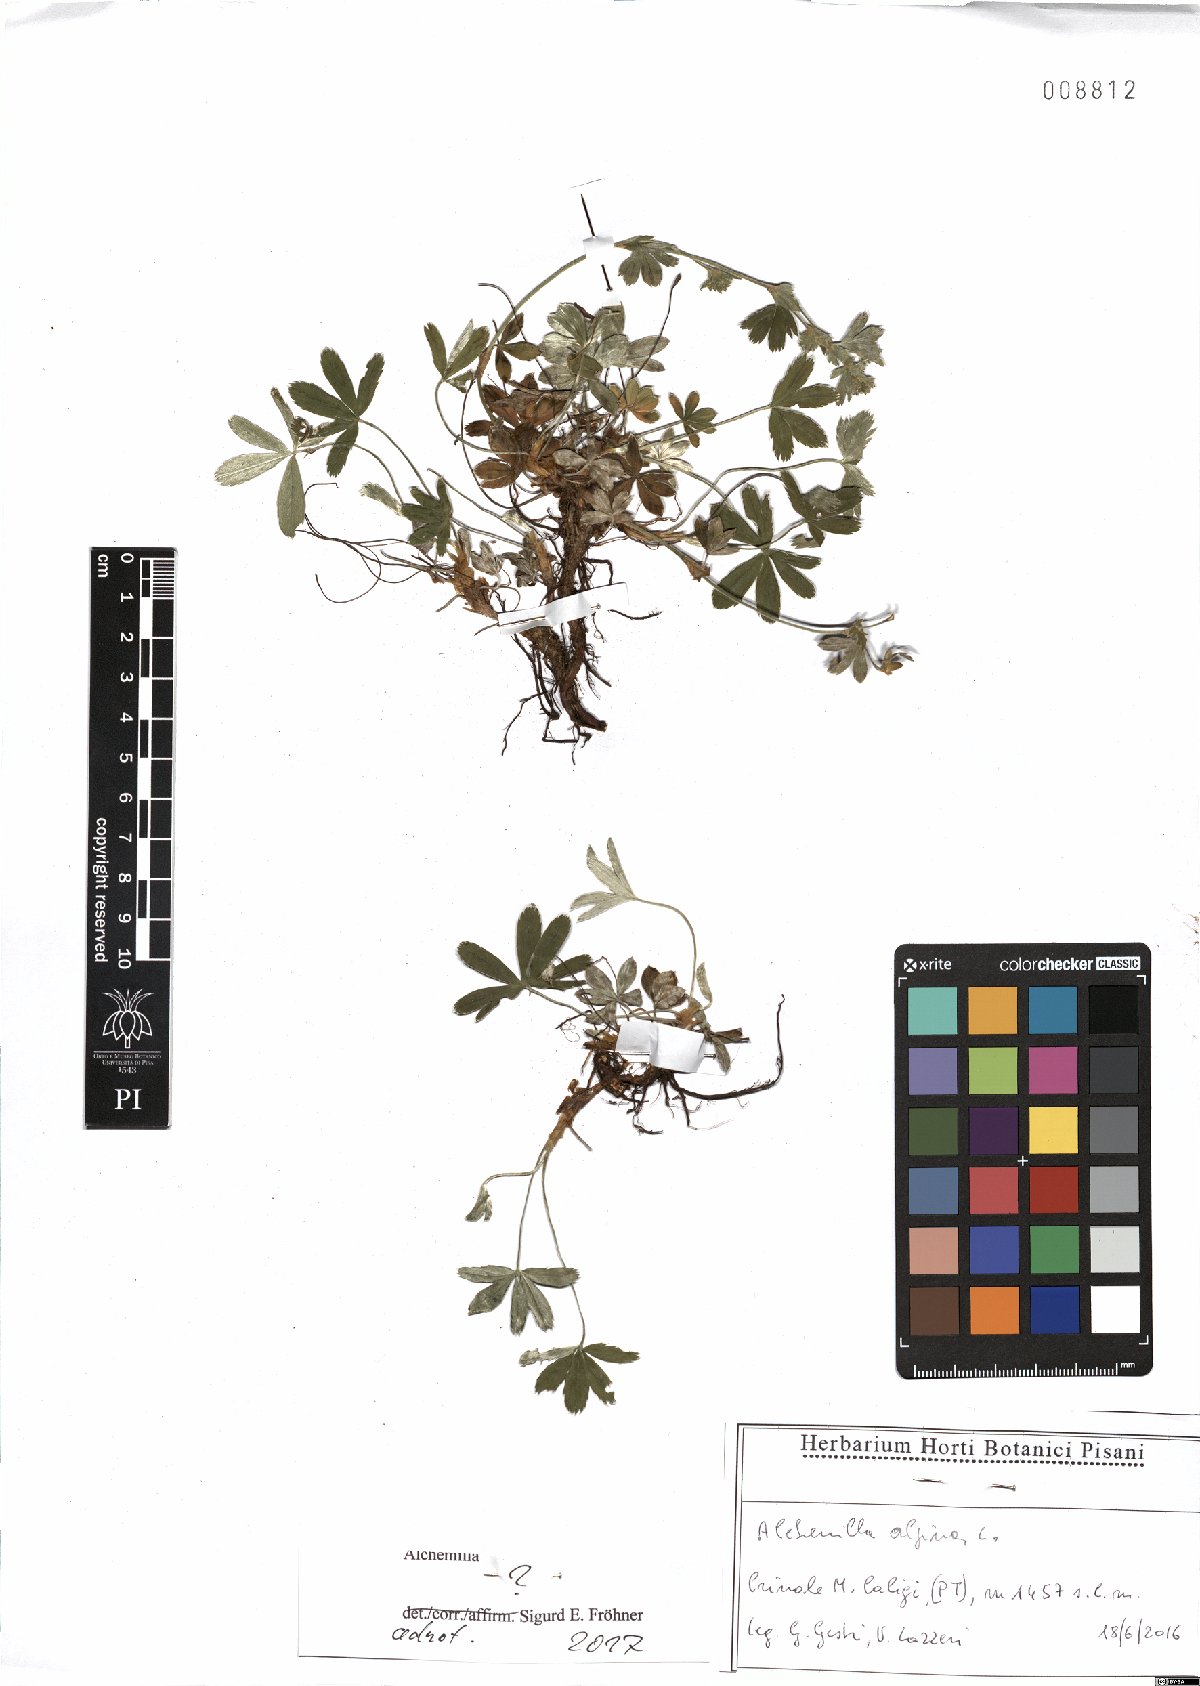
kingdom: Plantae
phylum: Tracheophyta
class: Magnoliopsida
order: Rosales
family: Rosaceae
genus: Alchemilla
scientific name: Alchemilla
